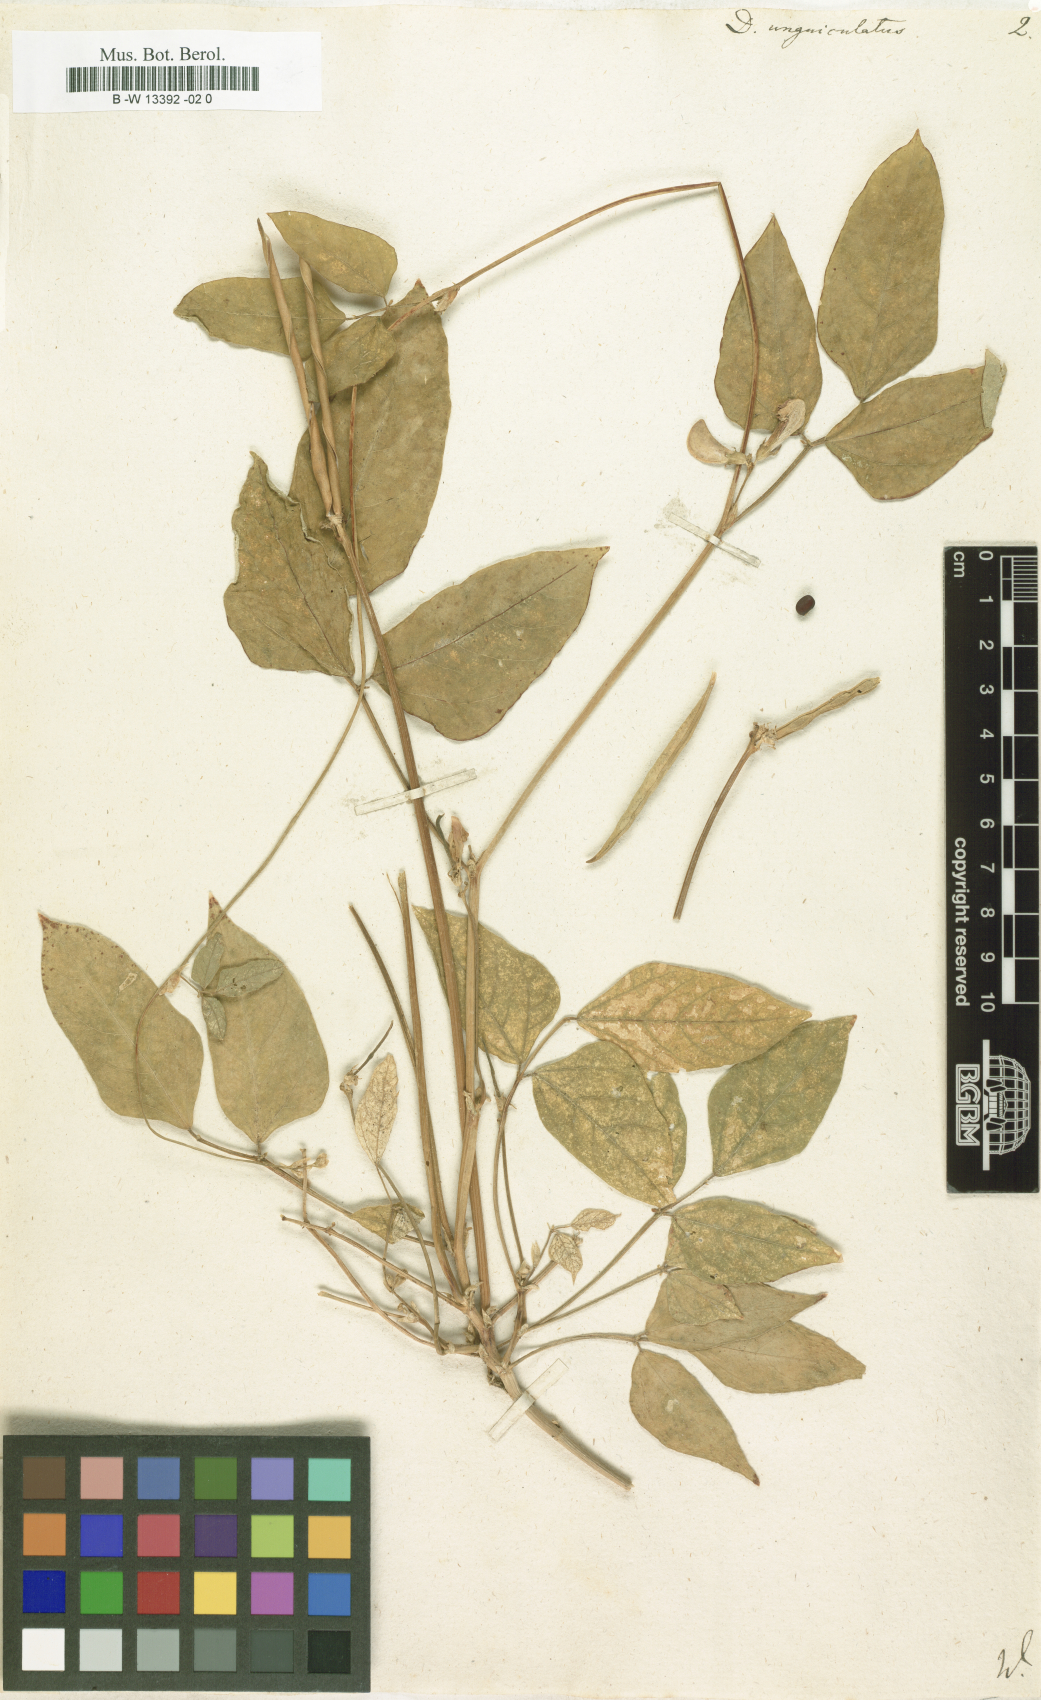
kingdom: Plantae
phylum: Tracheophyta
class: Magnoliopsida
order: Fabales
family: Fabaceae
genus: Vigna
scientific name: Vigna unguiculata
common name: Cowpea
